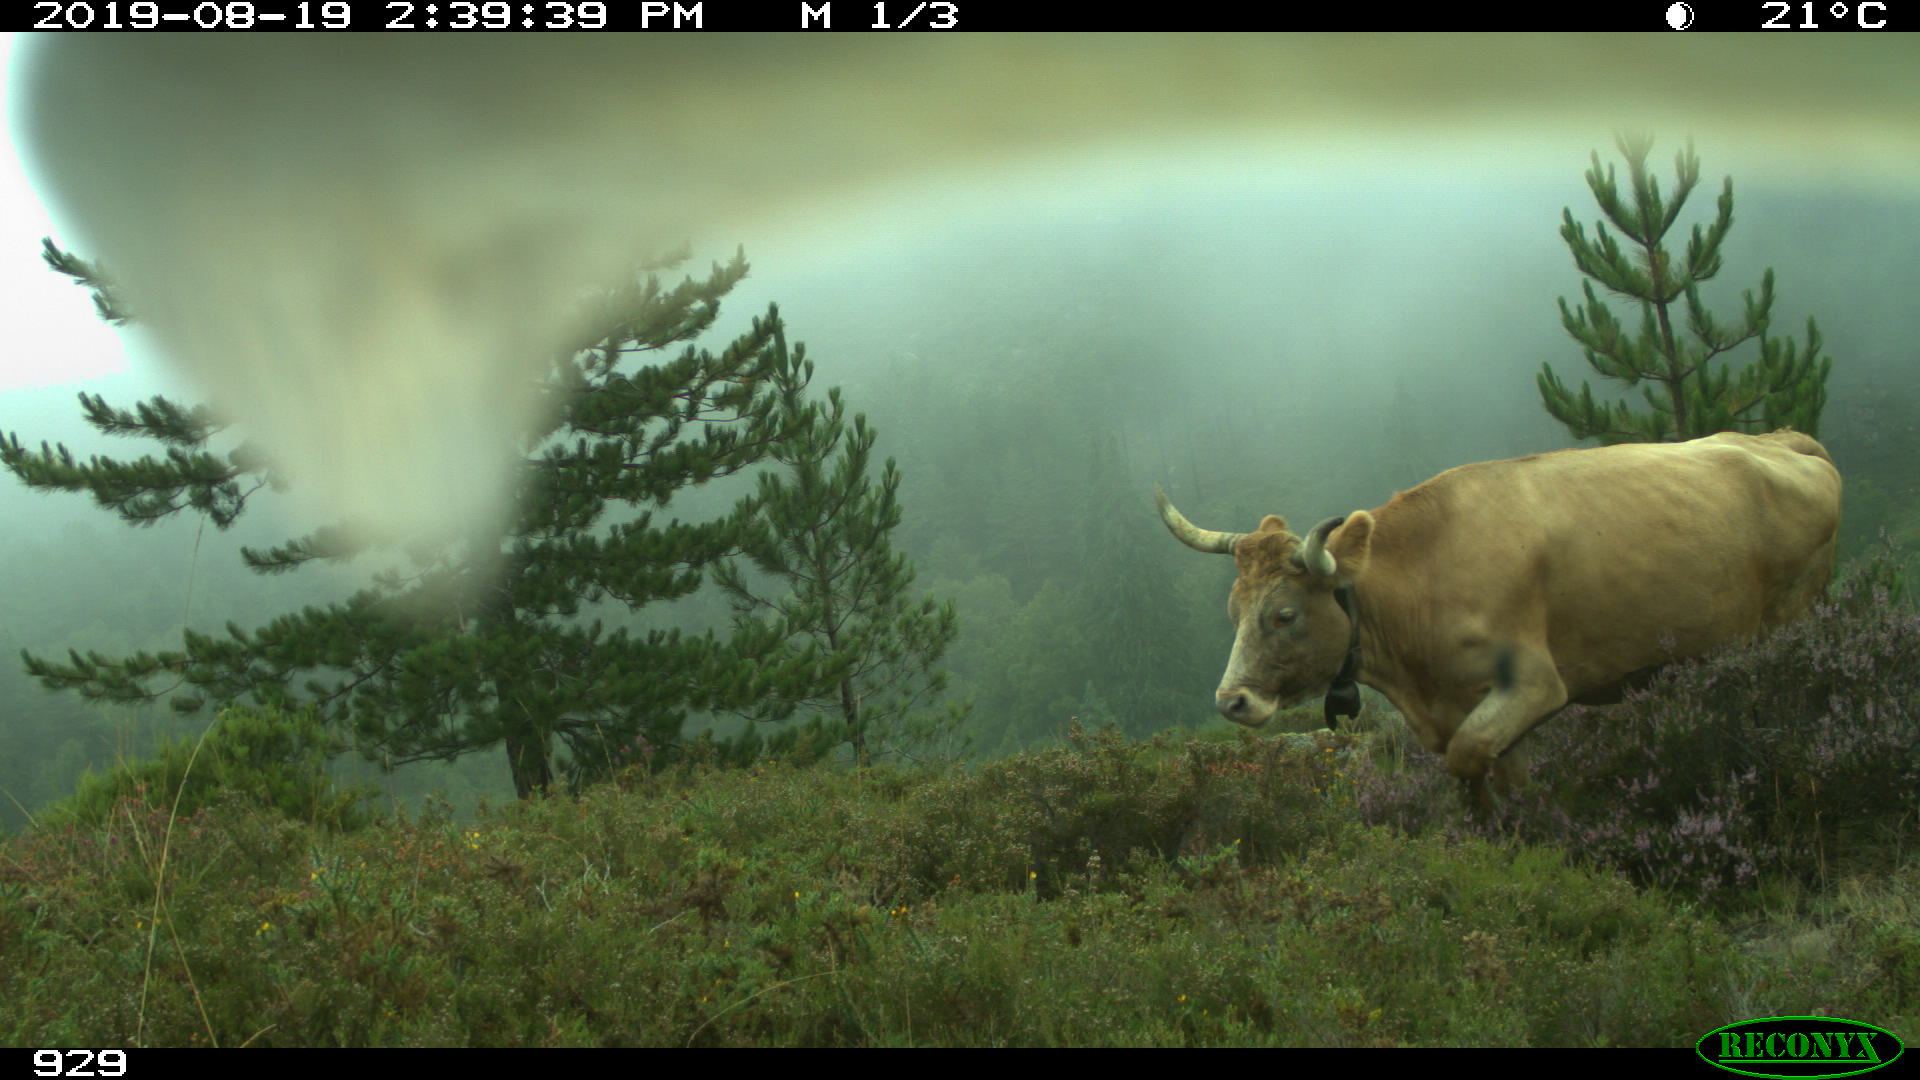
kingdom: Animalia
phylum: Chordata
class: Mammalia
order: Artiodactyla
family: Bovidae
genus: Bos
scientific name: Bos taurus
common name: Domesticated cattle
